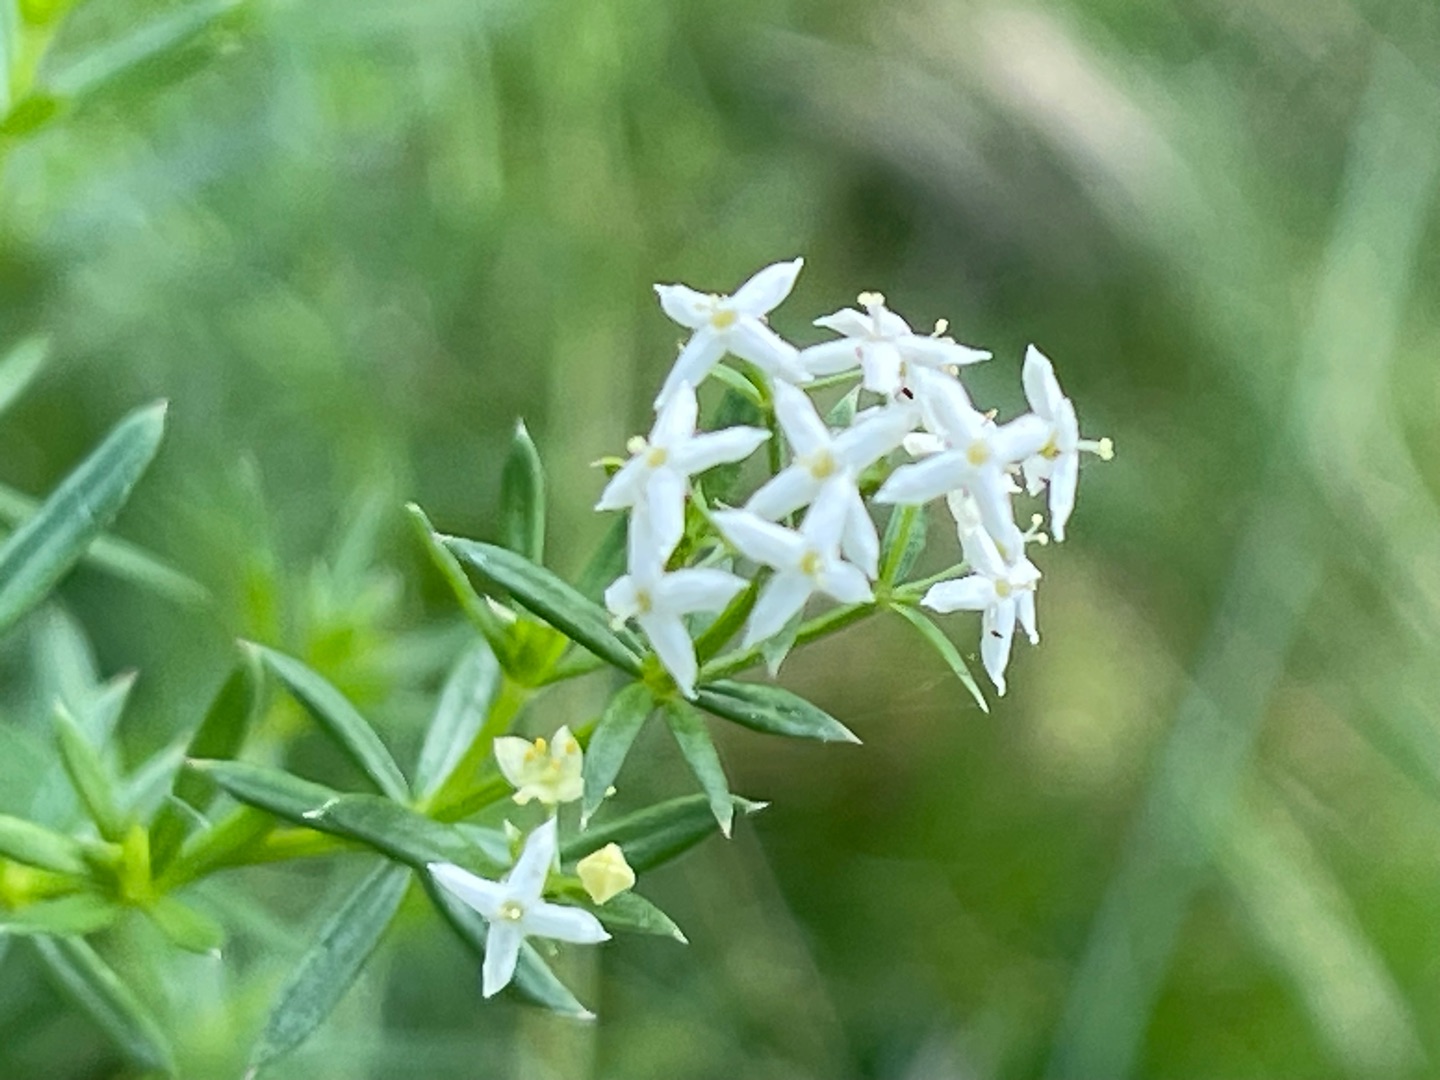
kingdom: Plantae
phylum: Tracheophyta
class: Magnoliopsida
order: Gentianales
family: Rubiaceae
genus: Galium
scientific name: Galium mollugo
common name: Hvid snerre
